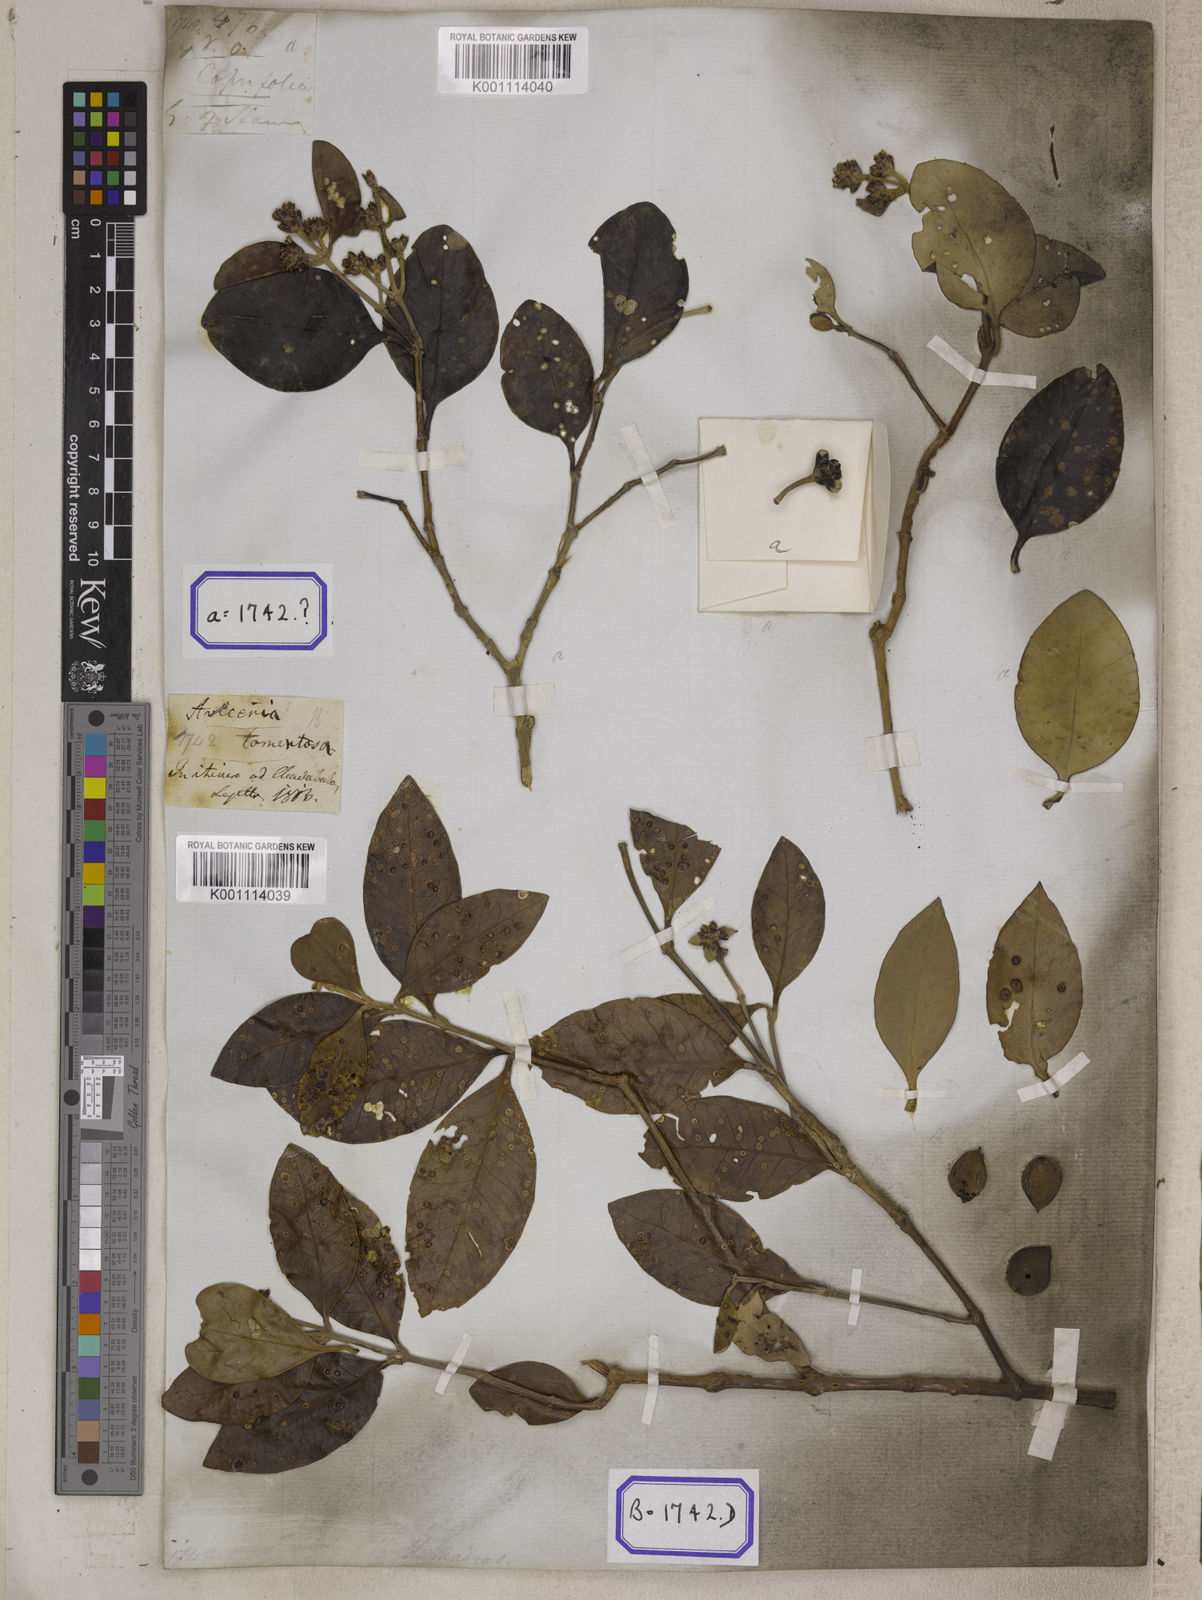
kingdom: Plantae
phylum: Tracheophyta
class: Magnoliopsida
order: Lamiales
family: Acanthaceae
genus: Avicennia
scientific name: Avicennia
